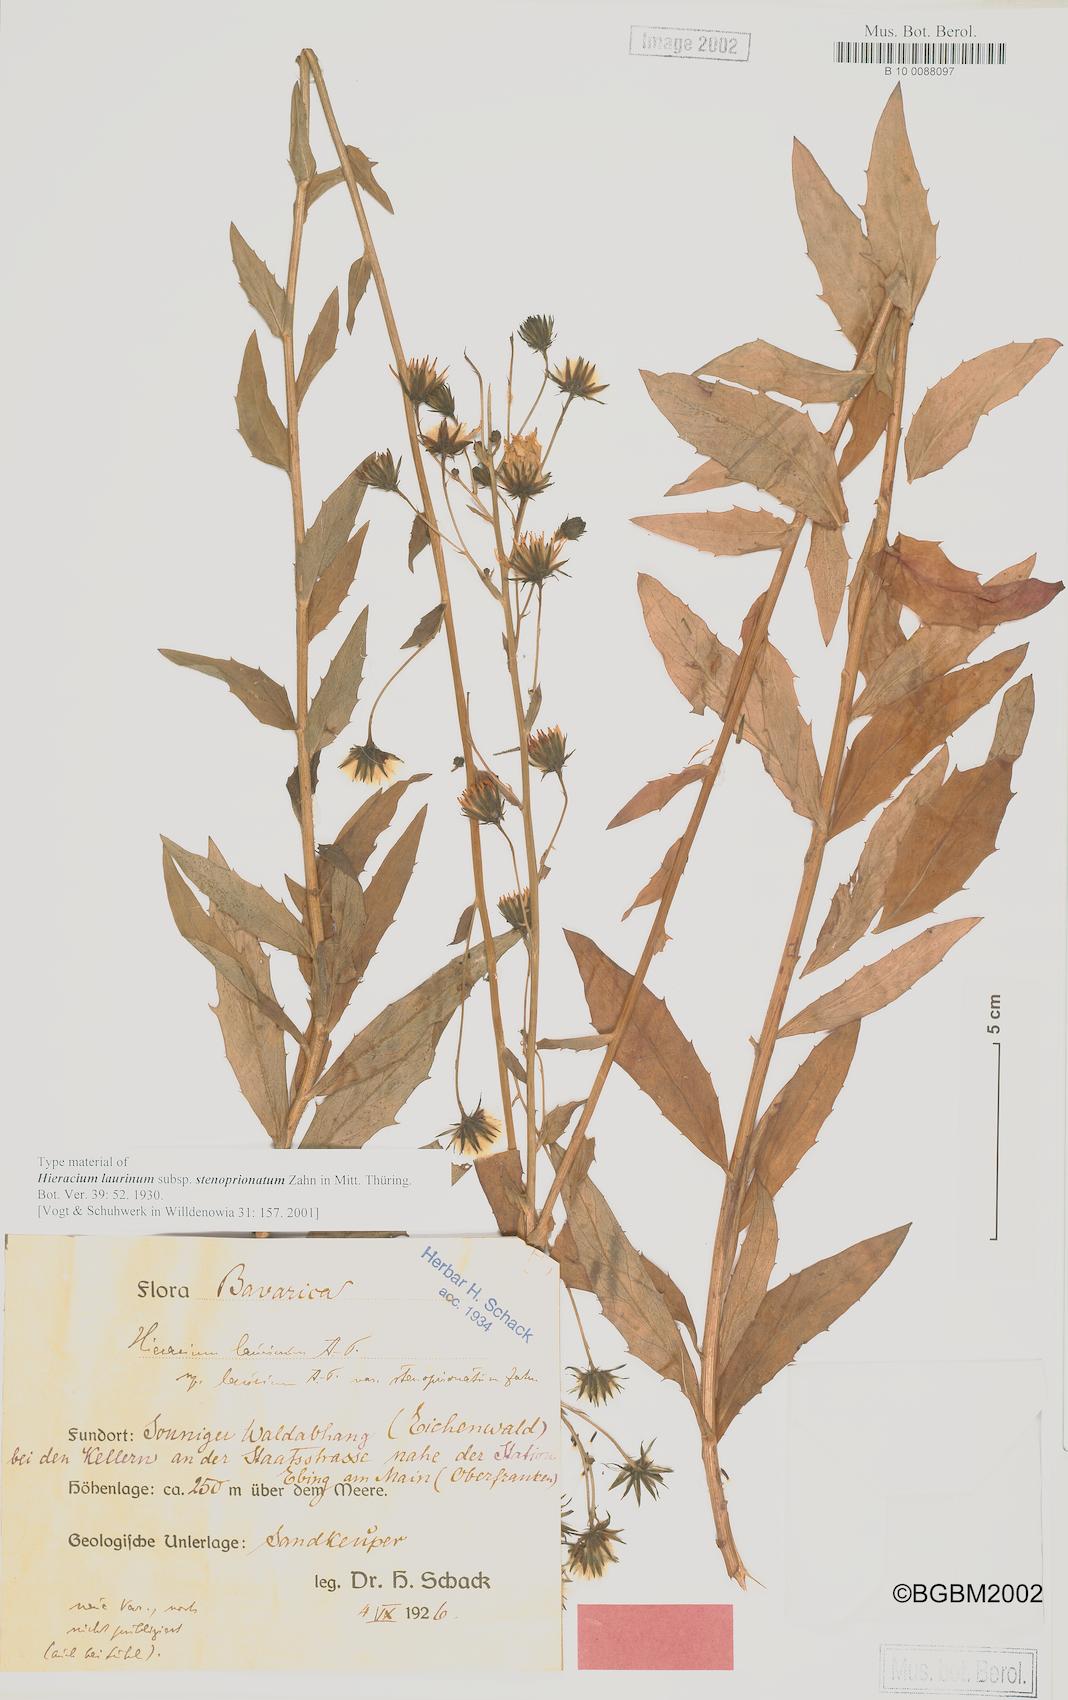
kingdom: Plantae
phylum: Tracheophyta
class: Magnoliopsida
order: Asterales
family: Asteraceae
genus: Hieracium
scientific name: Hieracium vasconicum
